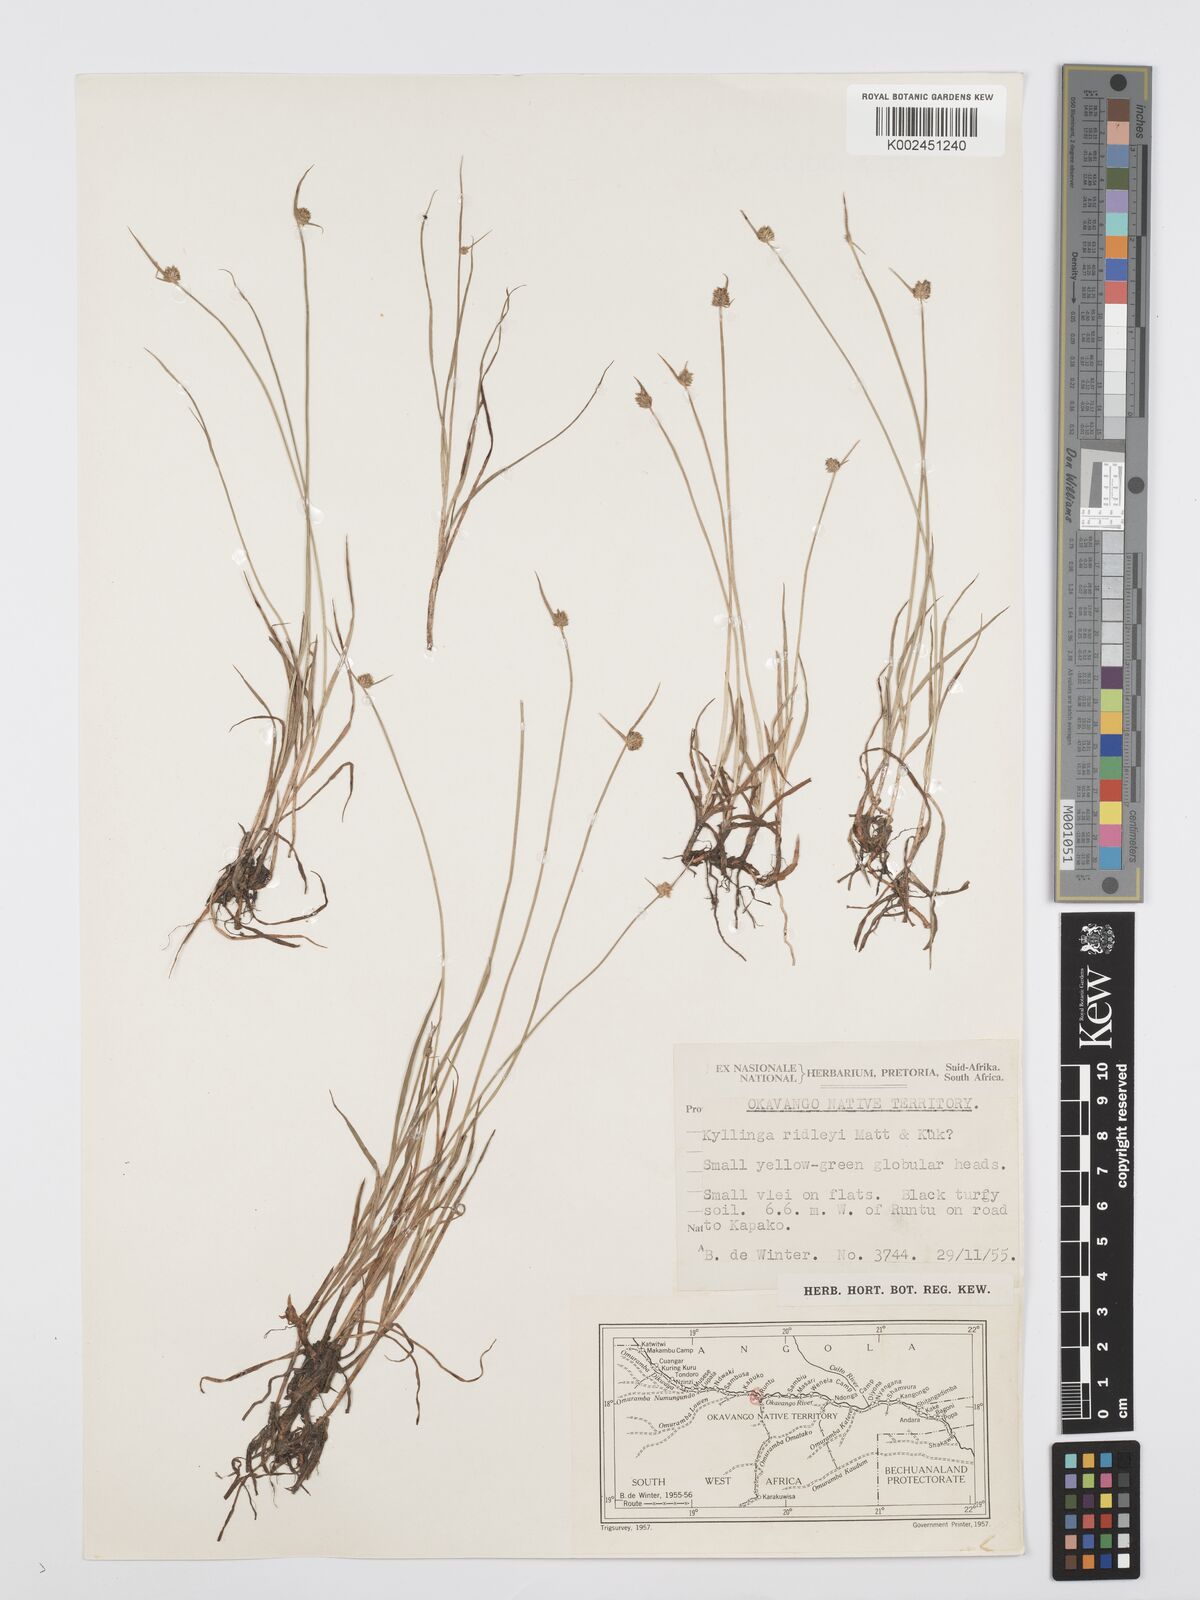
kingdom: Plantae
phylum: Tracheophyta
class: Liliopsida
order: Poales
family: Cyperaceae
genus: Cyperus
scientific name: Cyperus erectus
